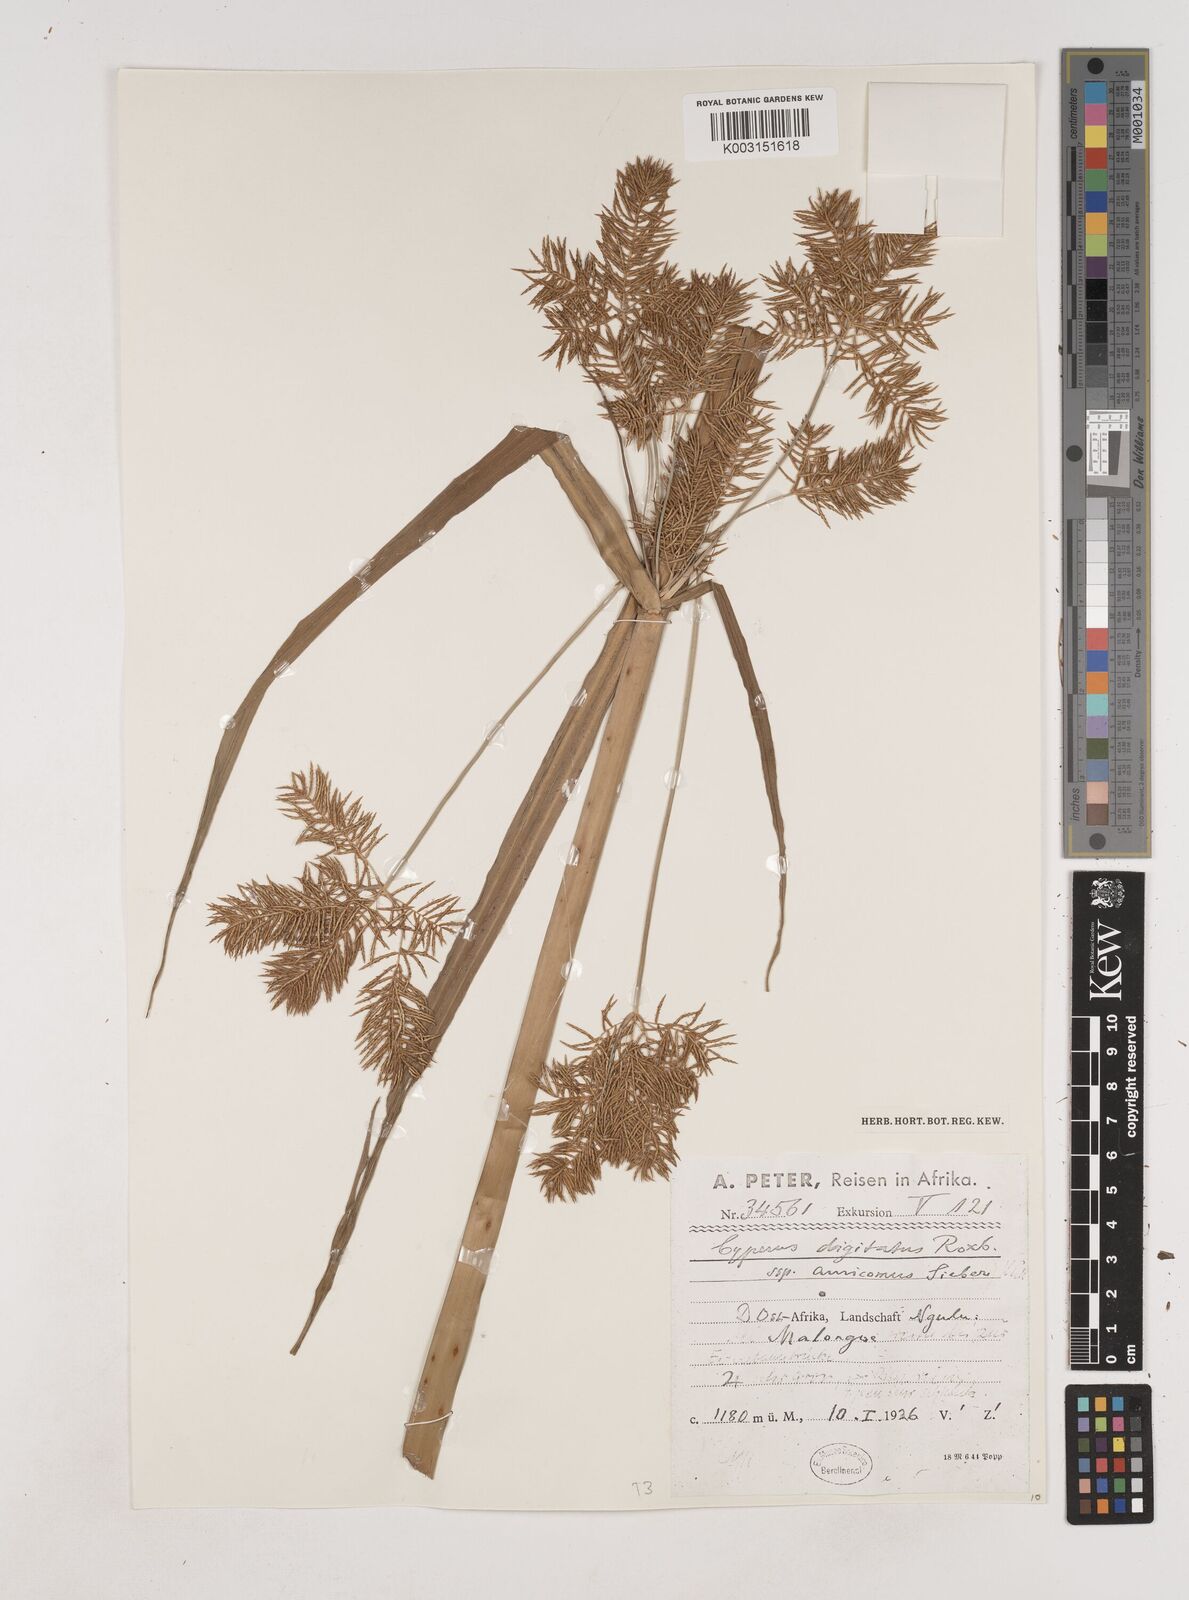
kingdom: Plantae
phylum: Tracheophyta
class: Liliopsida
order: Poales
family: Cyperaceae
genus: Cyperus
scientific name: Cyperus digitatus
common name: Finger flatsedge
